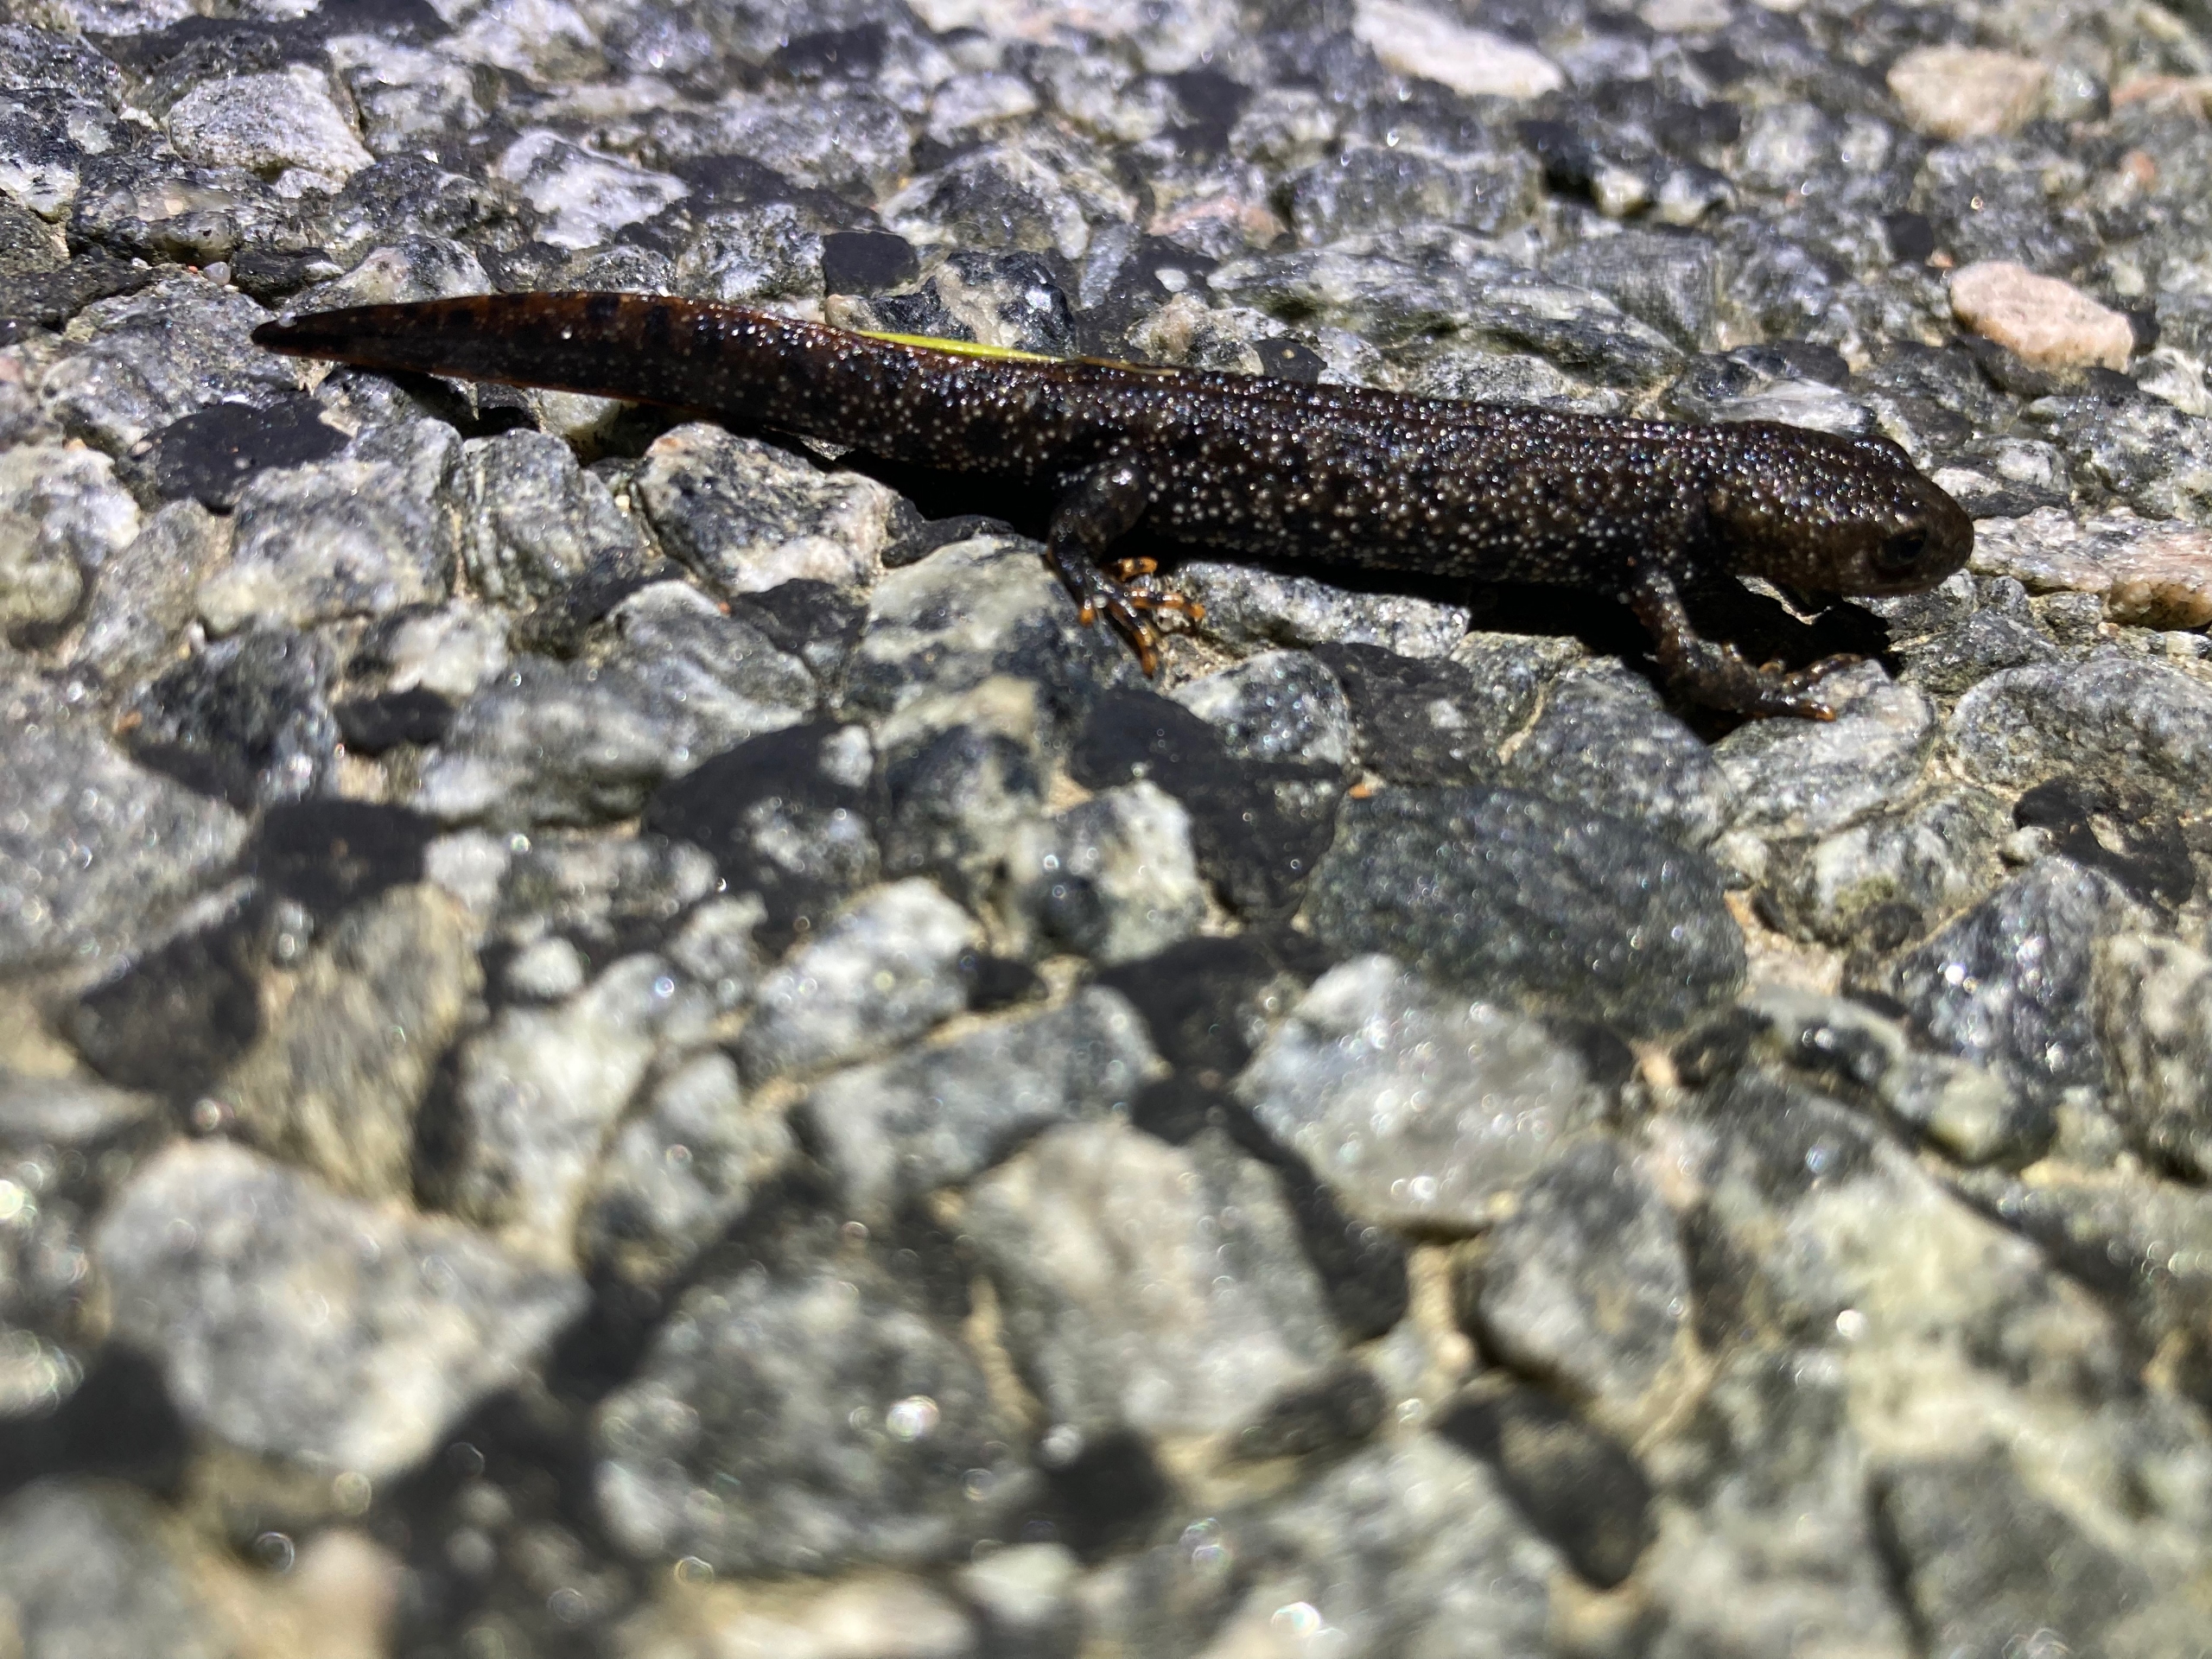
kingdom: Animalia
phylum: Chordata
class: Amphibia
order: Caudata
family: Salamandridae
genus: Triturus
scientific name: Triturus cristatus
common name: Stor vandsalamander
